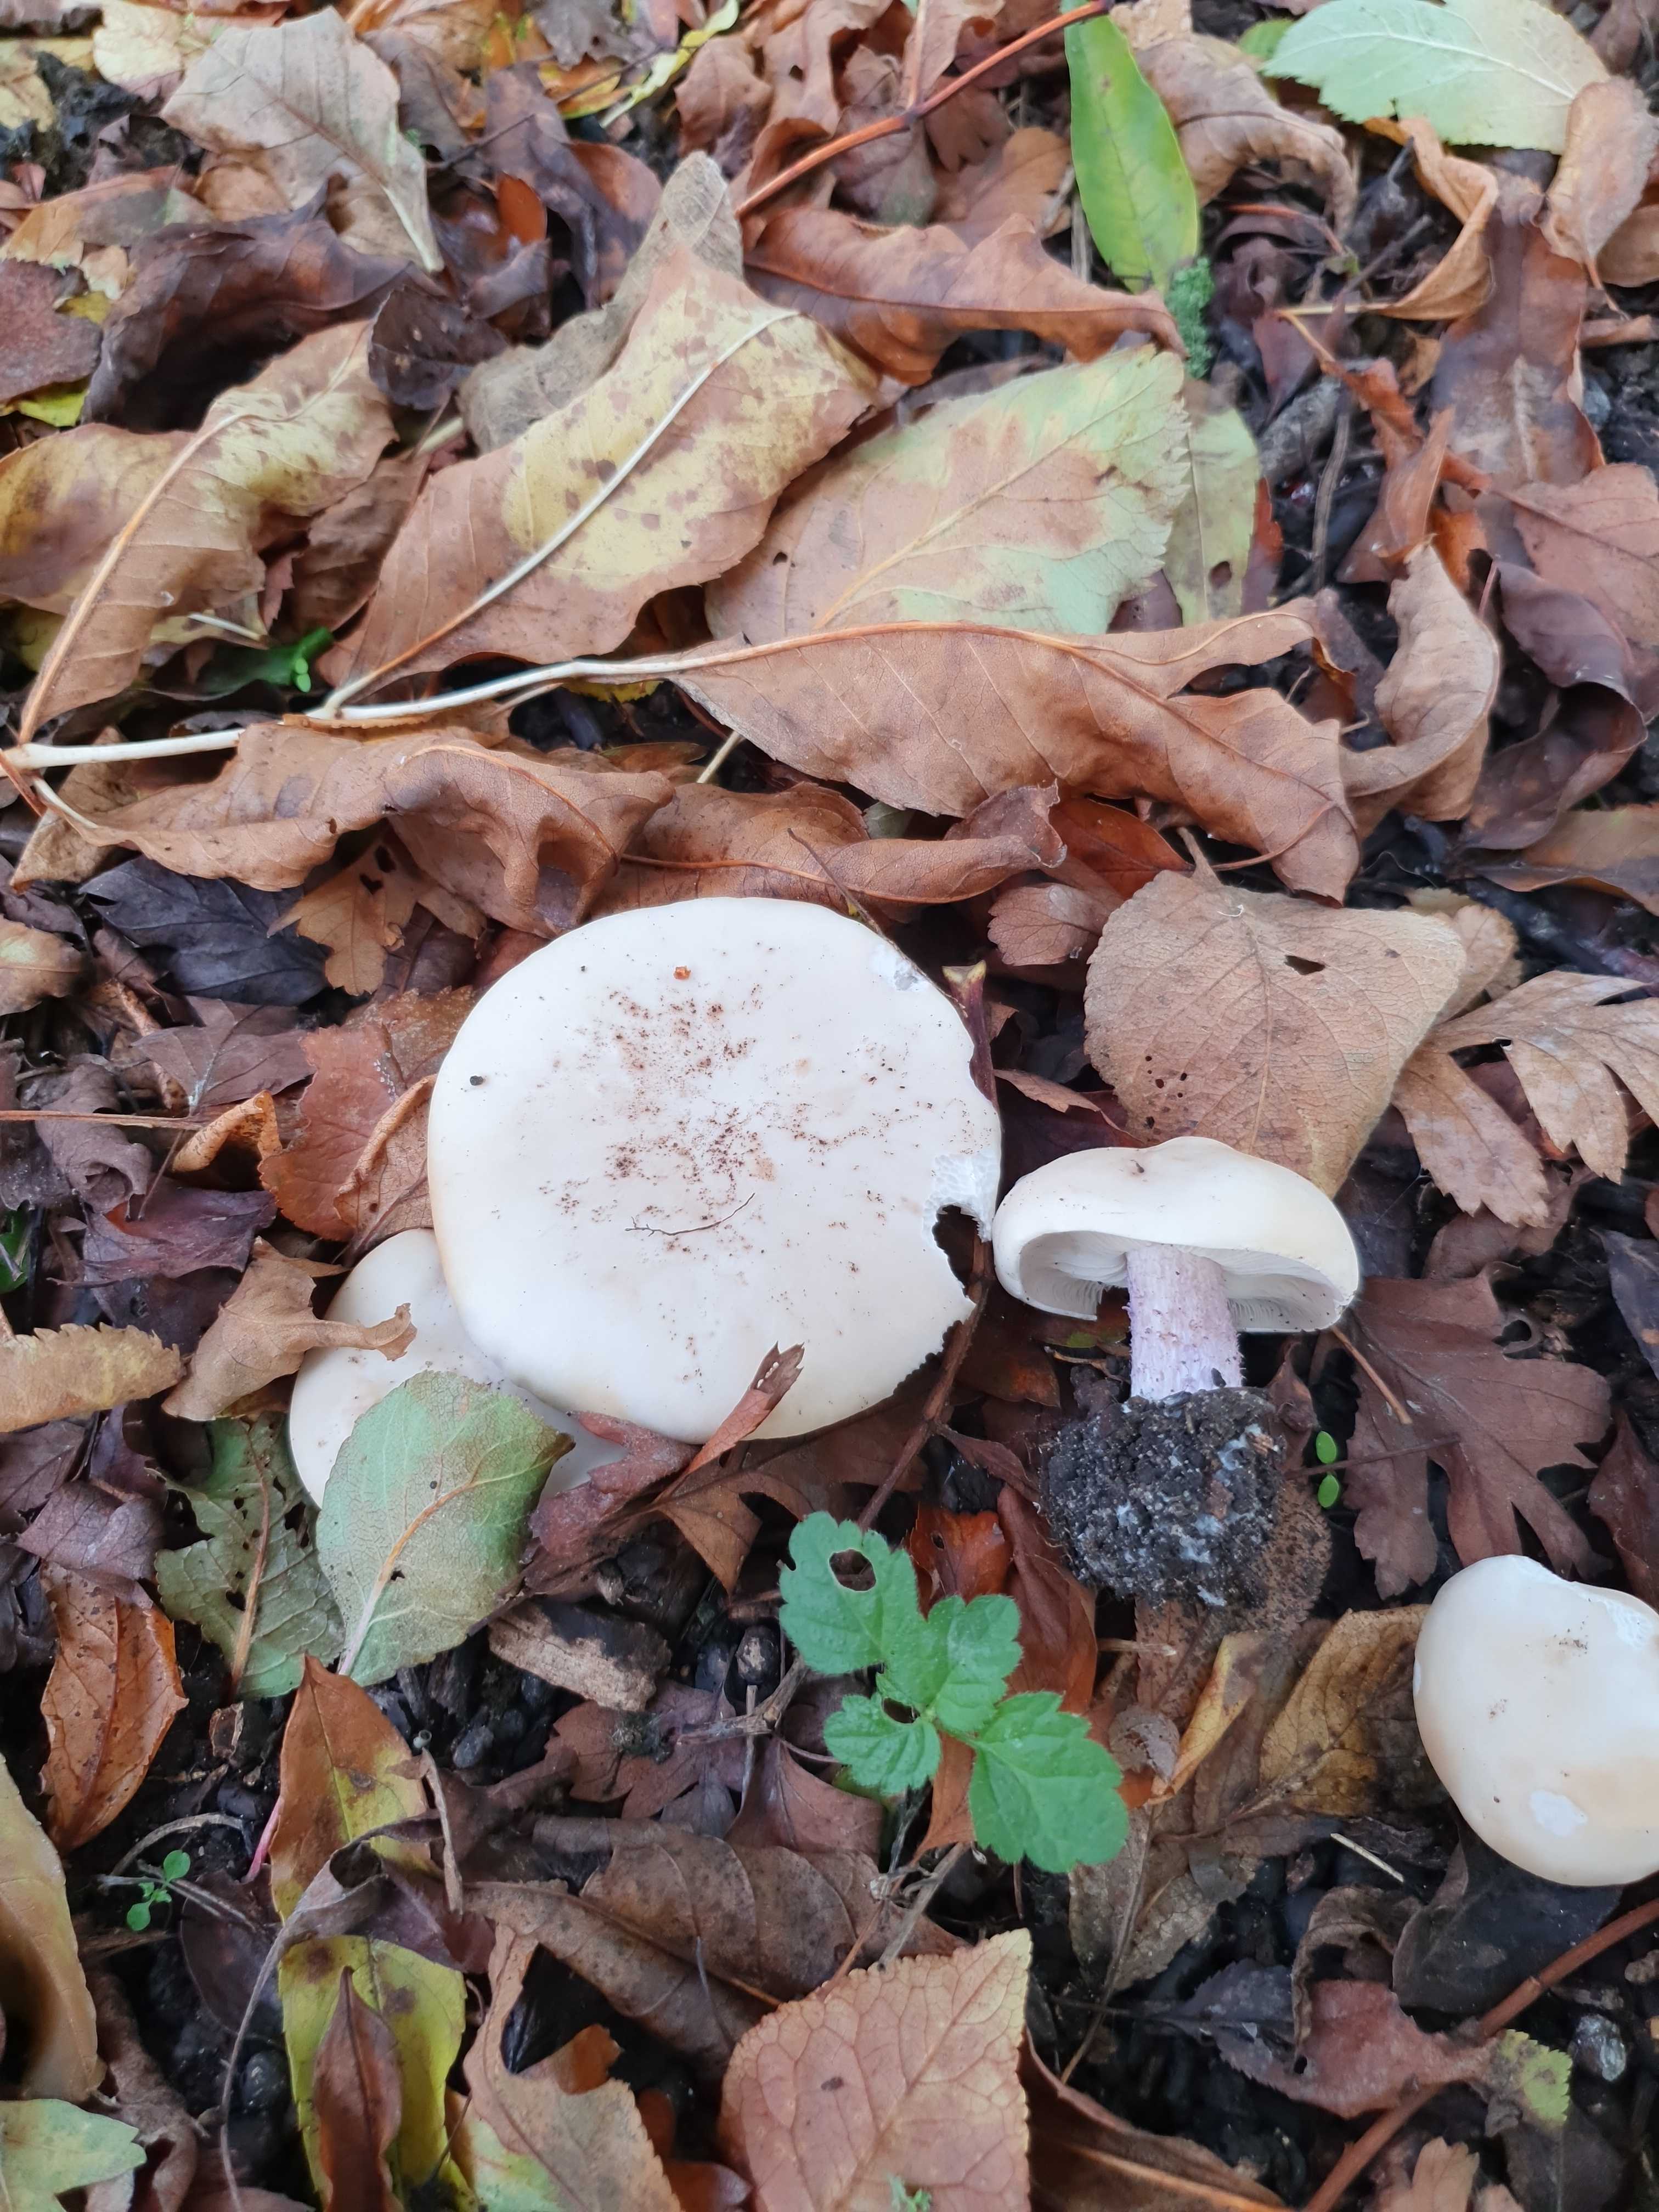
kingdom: Fungi
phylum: Basidiomycota
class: Agaricomycetes
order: Agaricales
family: Tricholomataceae
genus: Lepista
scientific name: Lepista personata
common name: bleg hekseringshat
